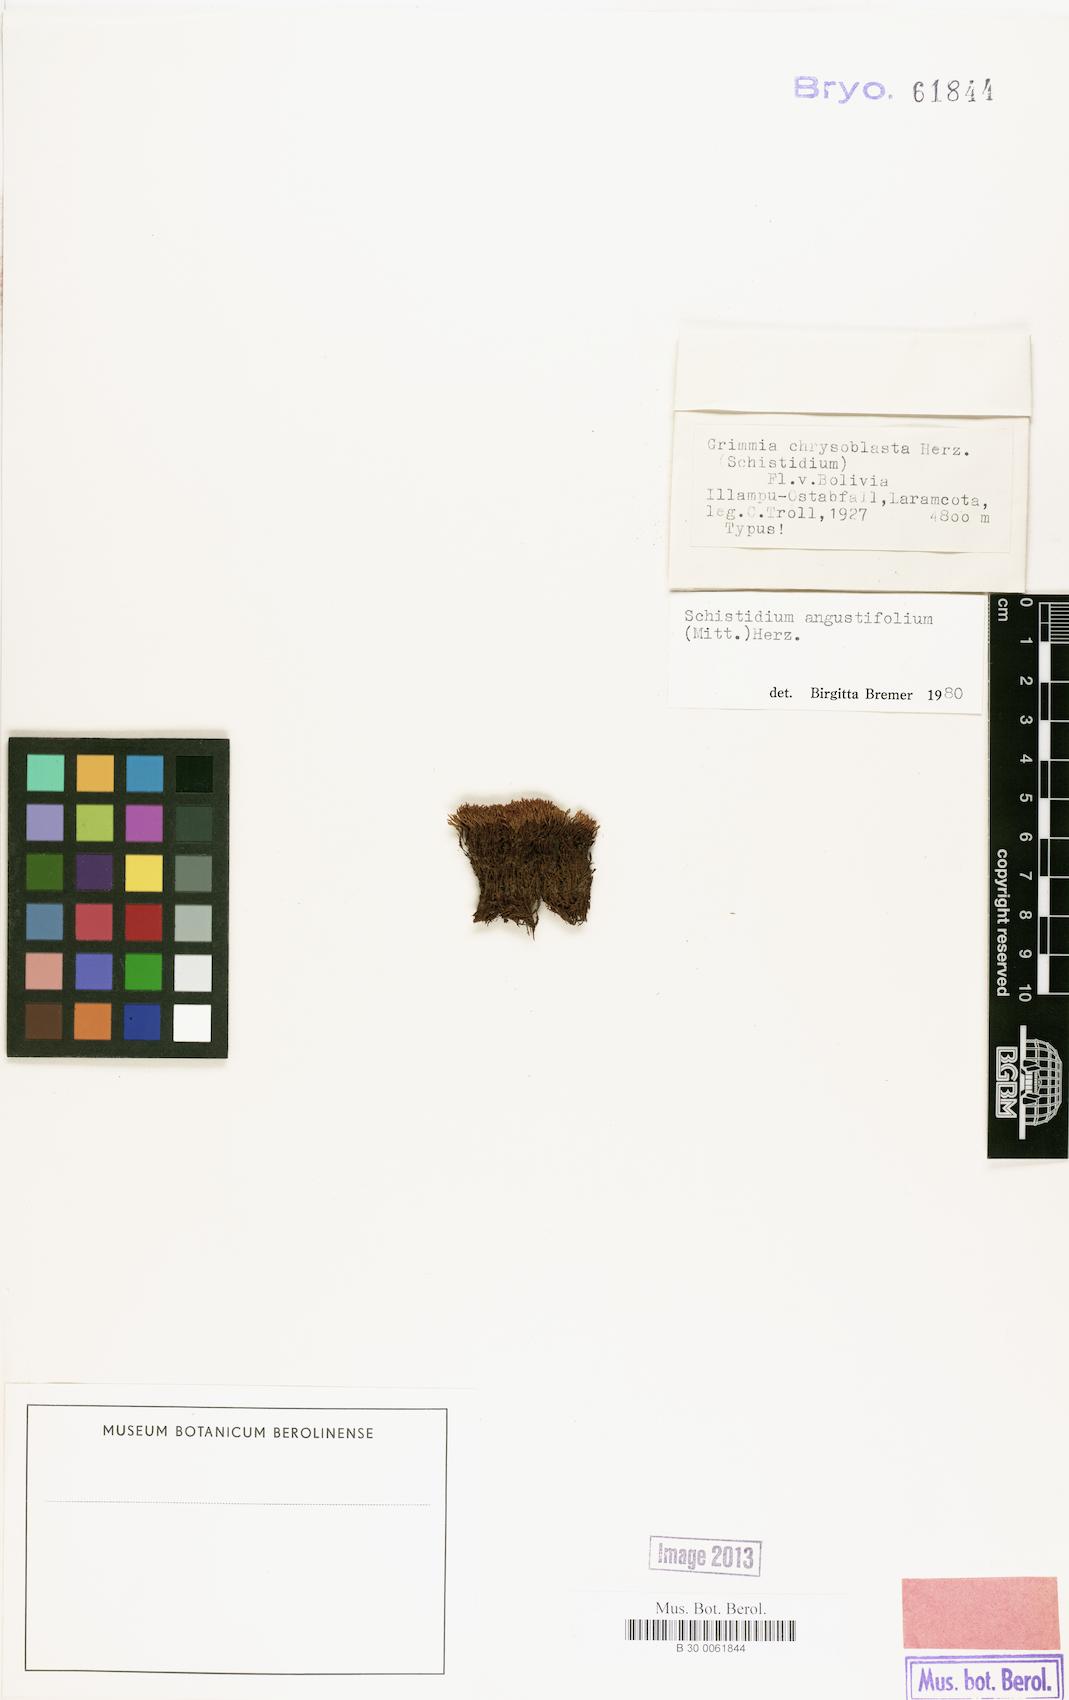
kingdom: Plantae
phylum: Bryophyta
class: Bryopsida
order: Grimmiales
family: Grimmiaceae
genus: Schistidium
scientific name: Schistidium amblyophyllum
